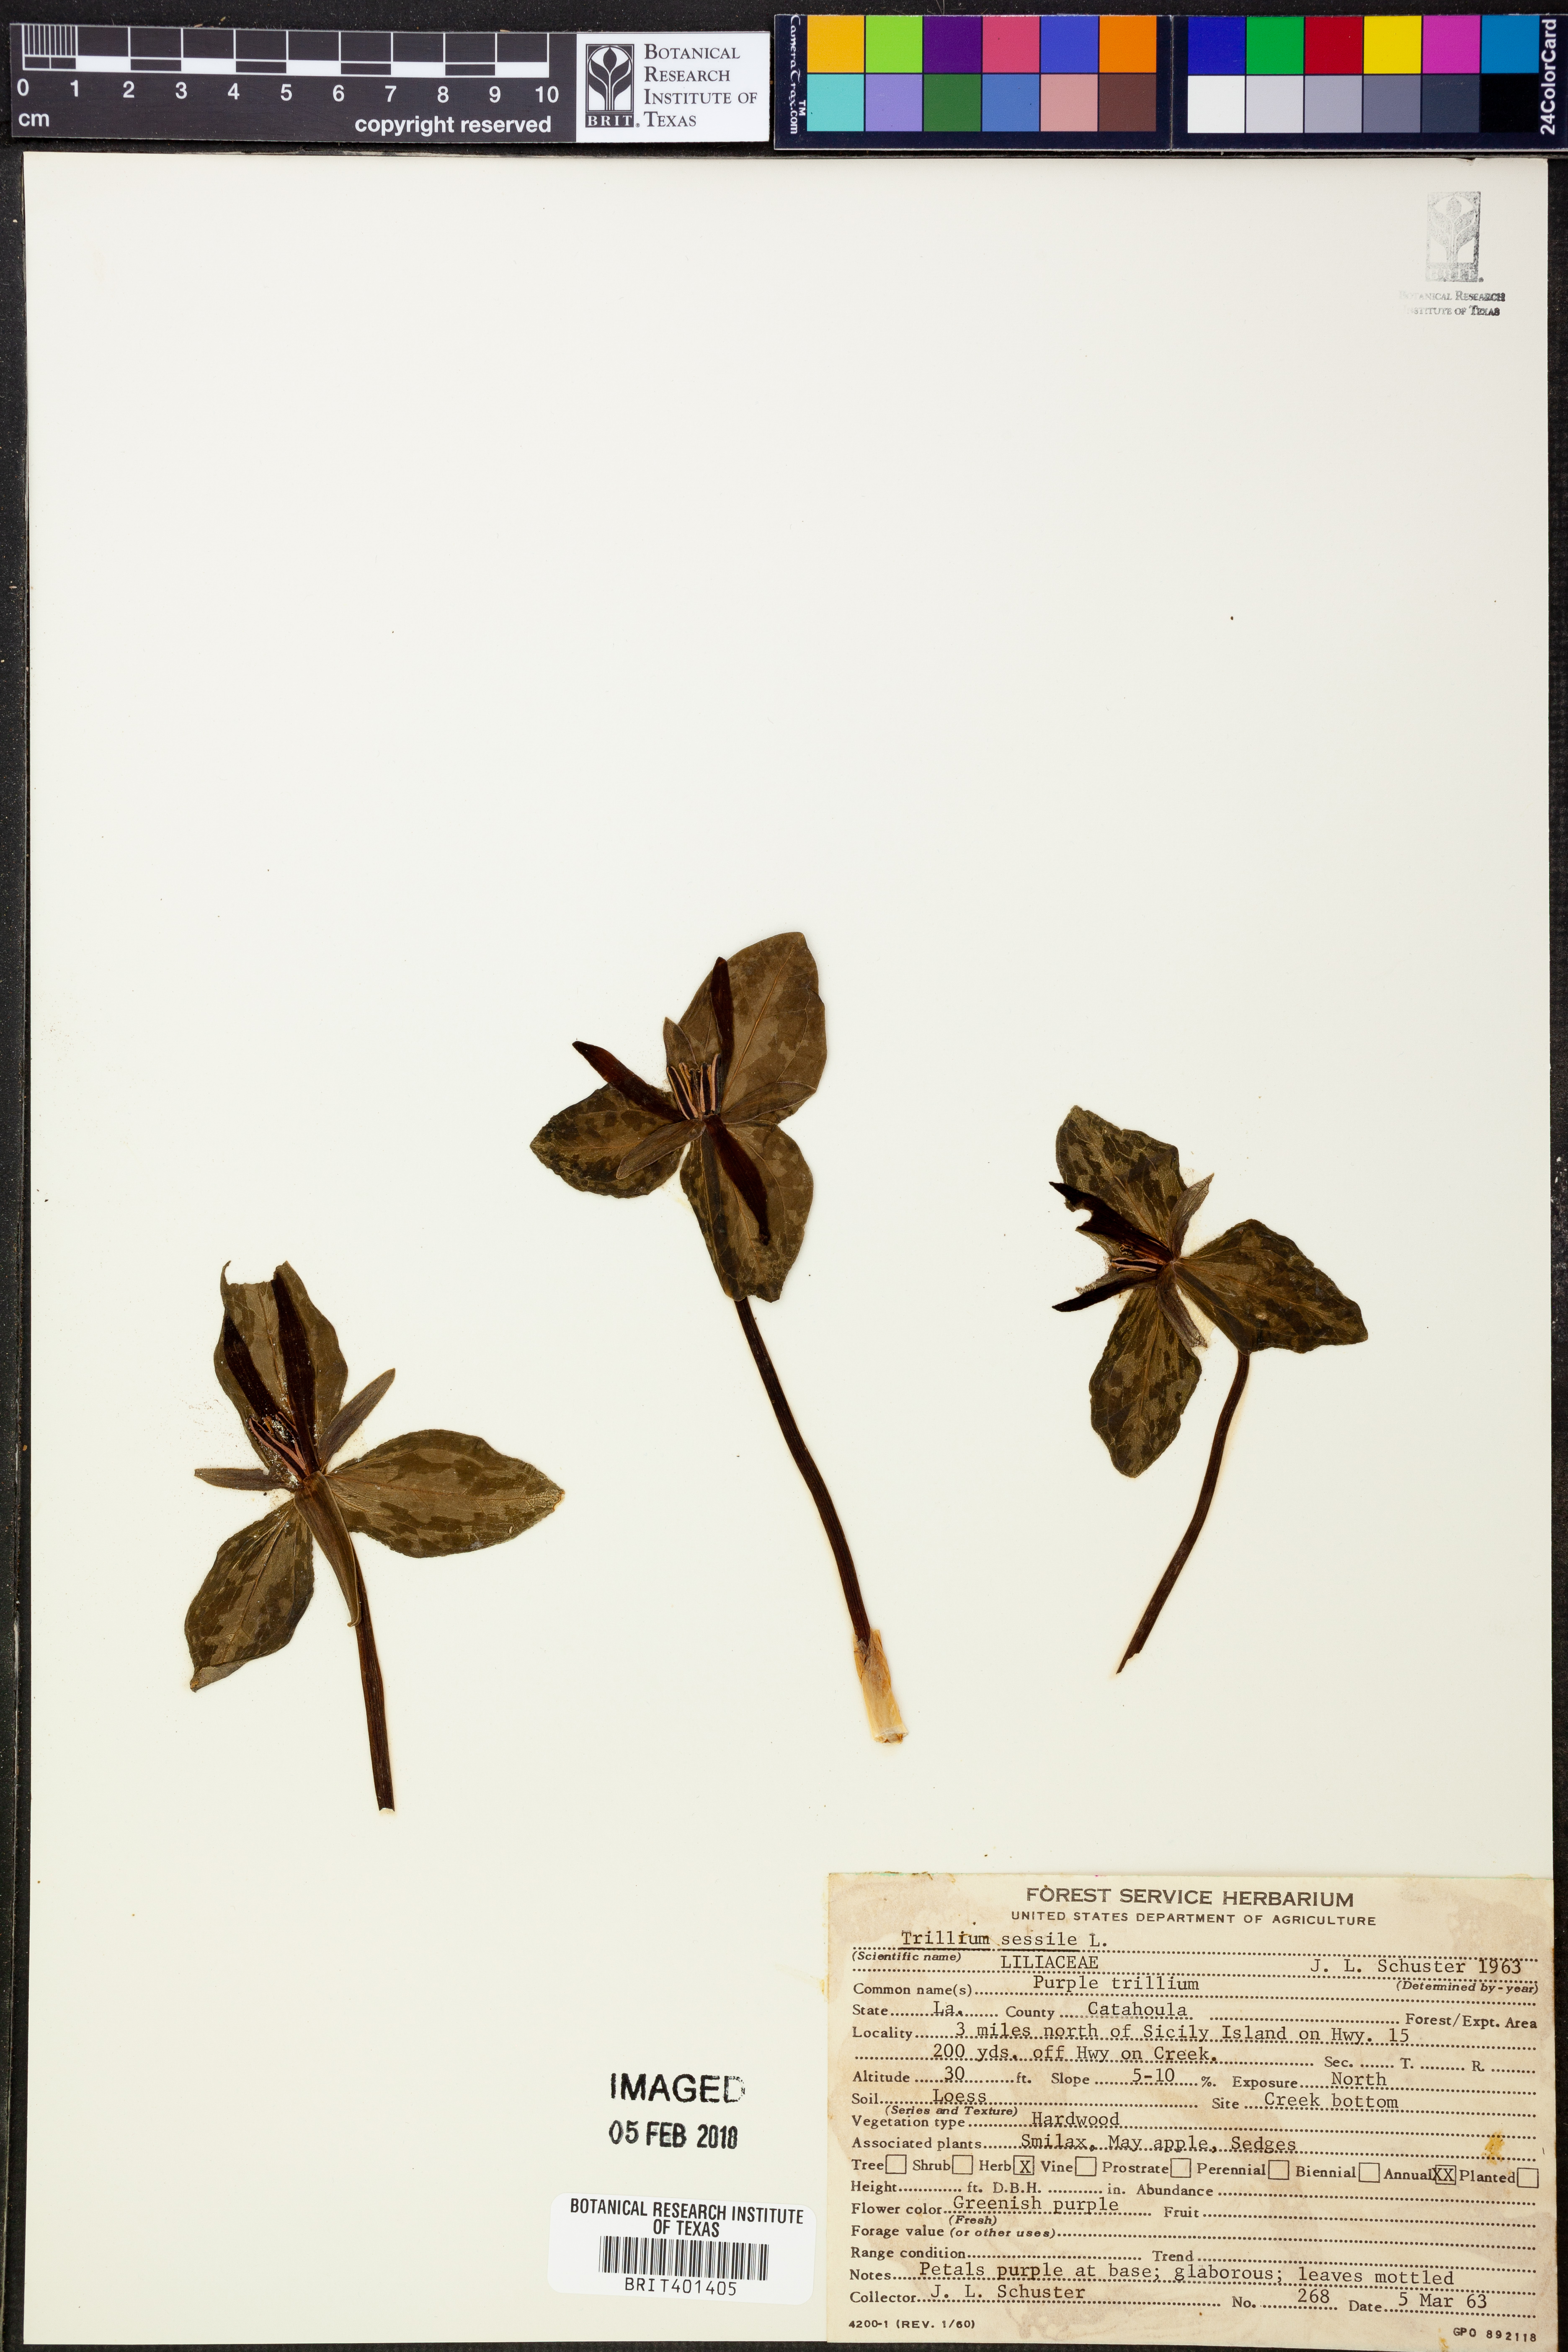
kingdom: Plantae
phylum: Tracheophyta
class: Liliopsida
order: Liliales
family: Melanthiaceae
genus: Trillium
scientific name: Trillium sessile
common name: Sessile trillium
